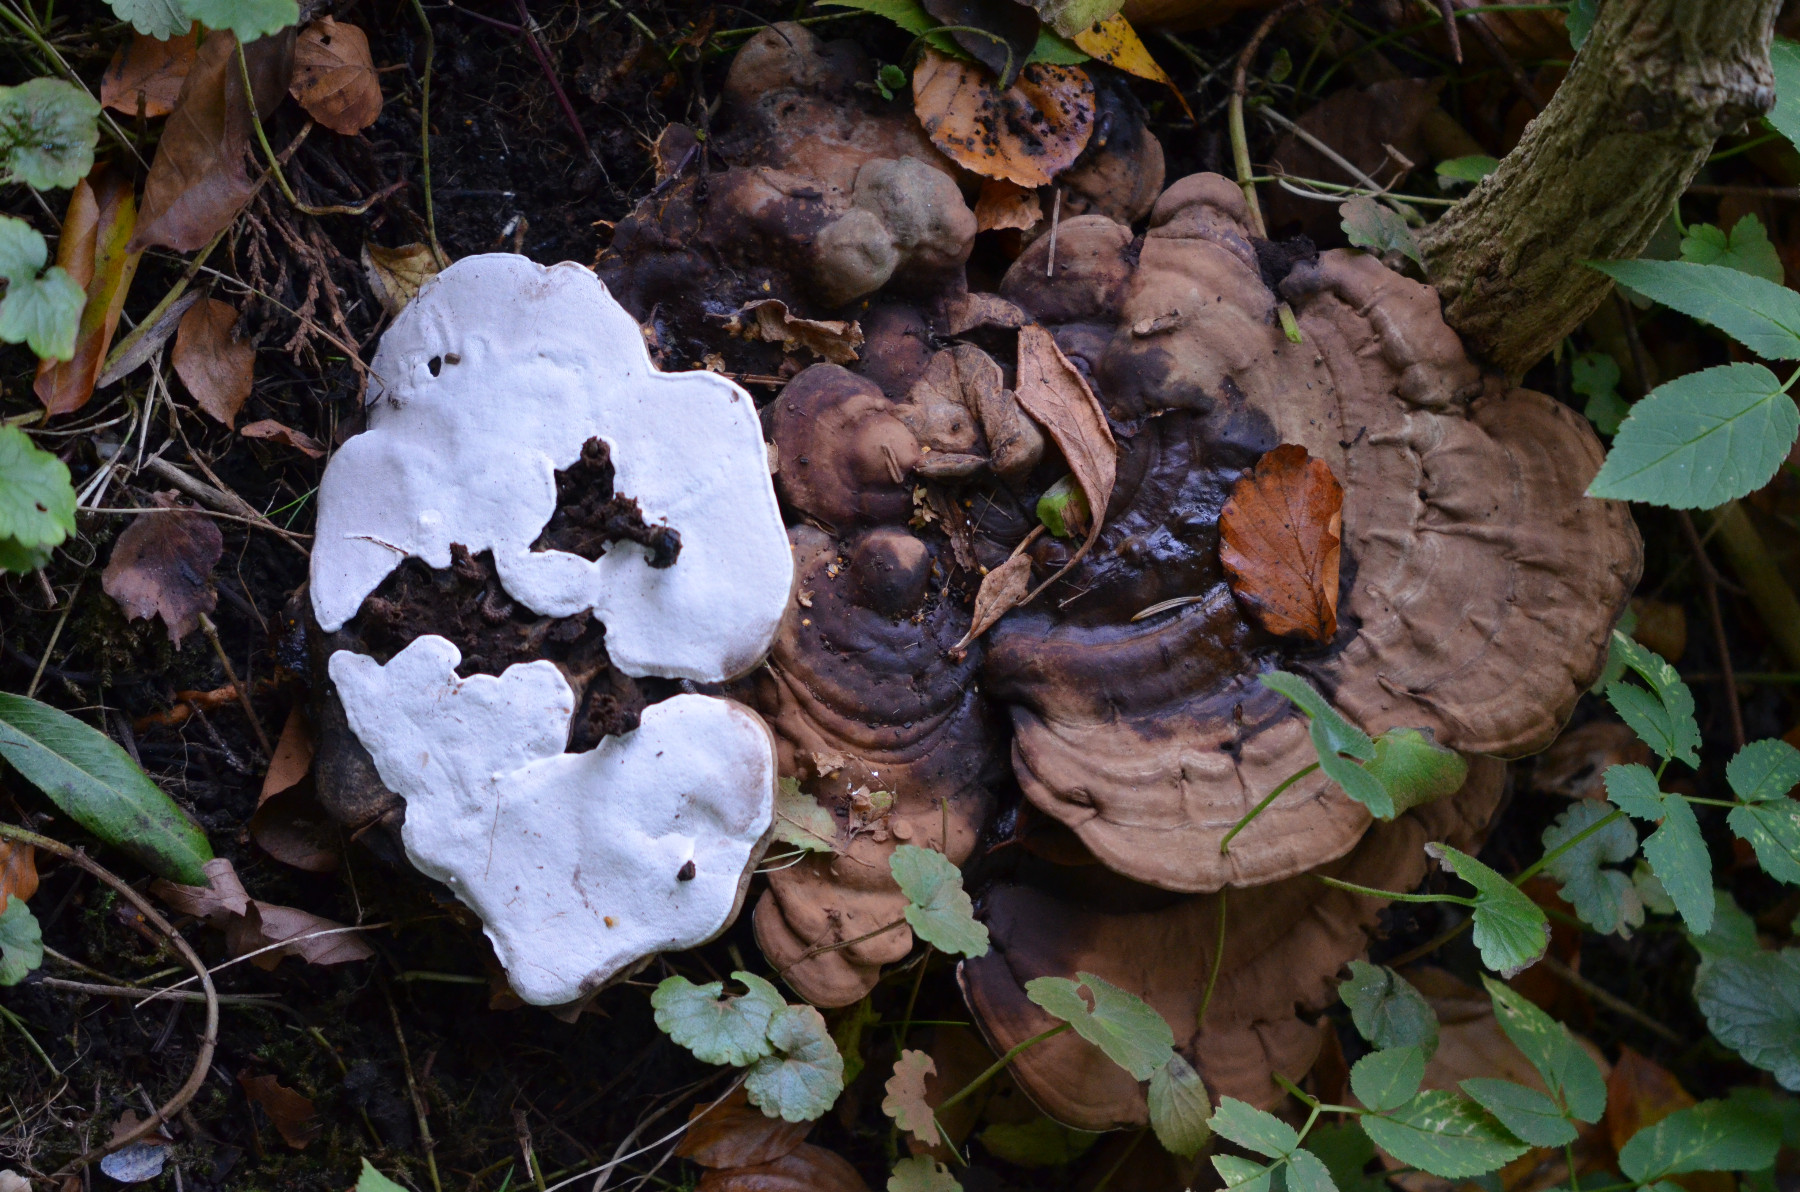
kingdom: Fungi
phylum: Basidiomycota
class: Agaricomycetes
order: Polyporales
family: Polyporaceae
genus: Ganoderma
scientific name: Ganoderma applanatum
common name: flad lakporesvamp
